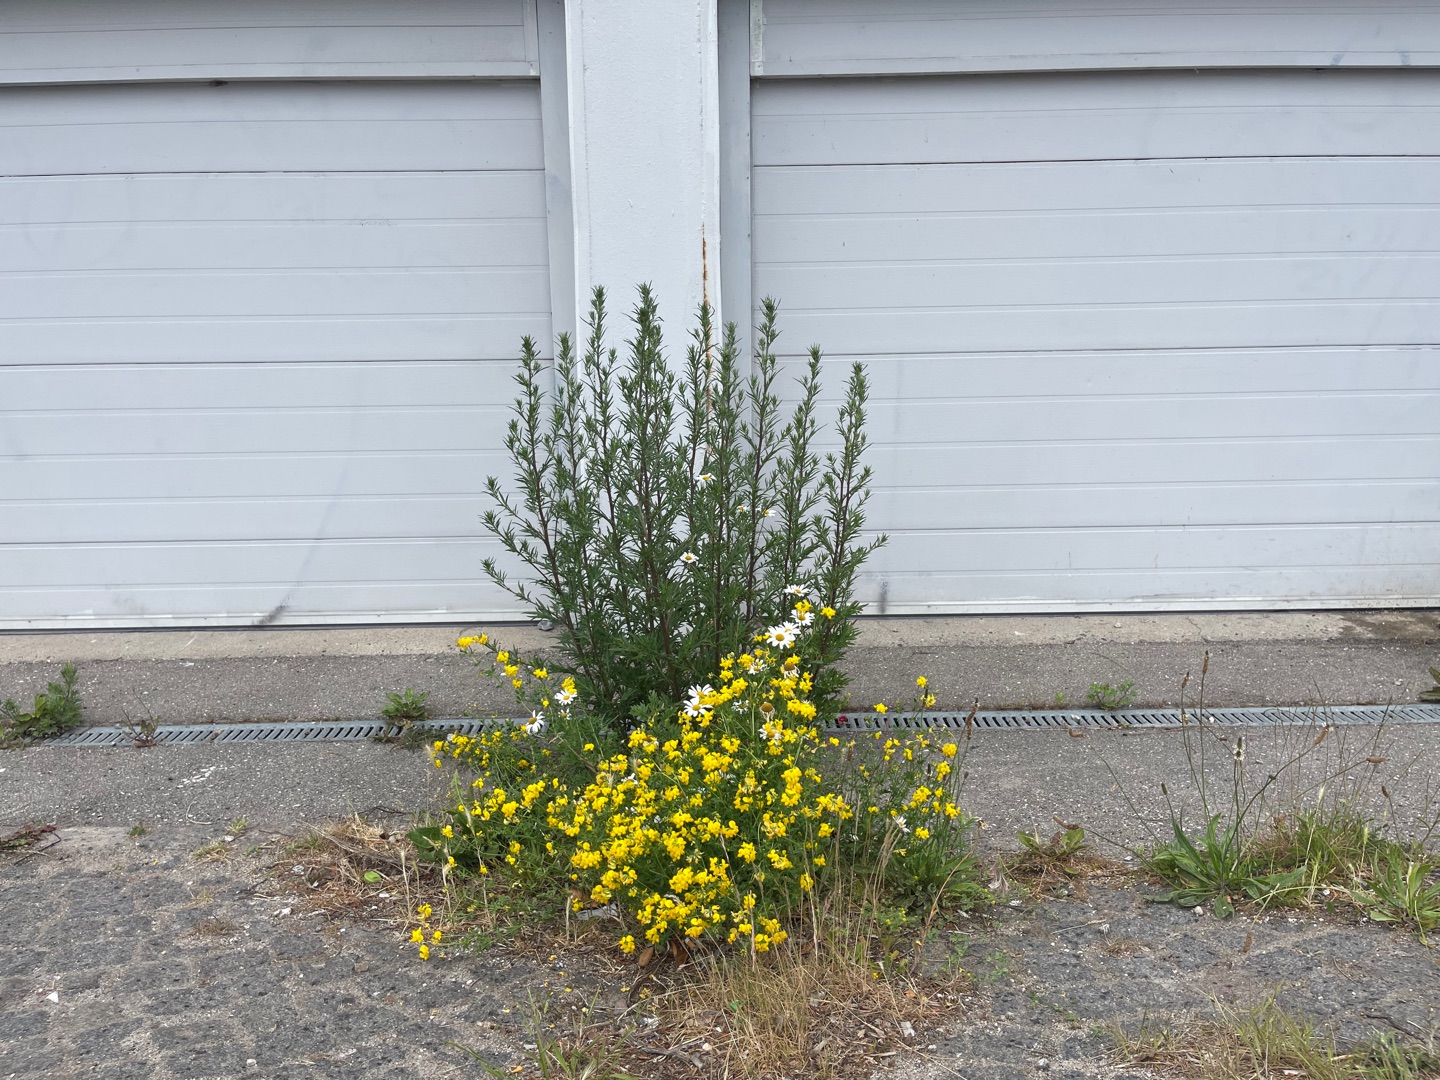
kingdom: Plantae
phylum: Tracheophyta
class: Magnoliopsida
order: Fabales
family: Fabaceae
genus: Lotus
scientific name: Lotus corniculatus
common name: Almindelig kællingetand
